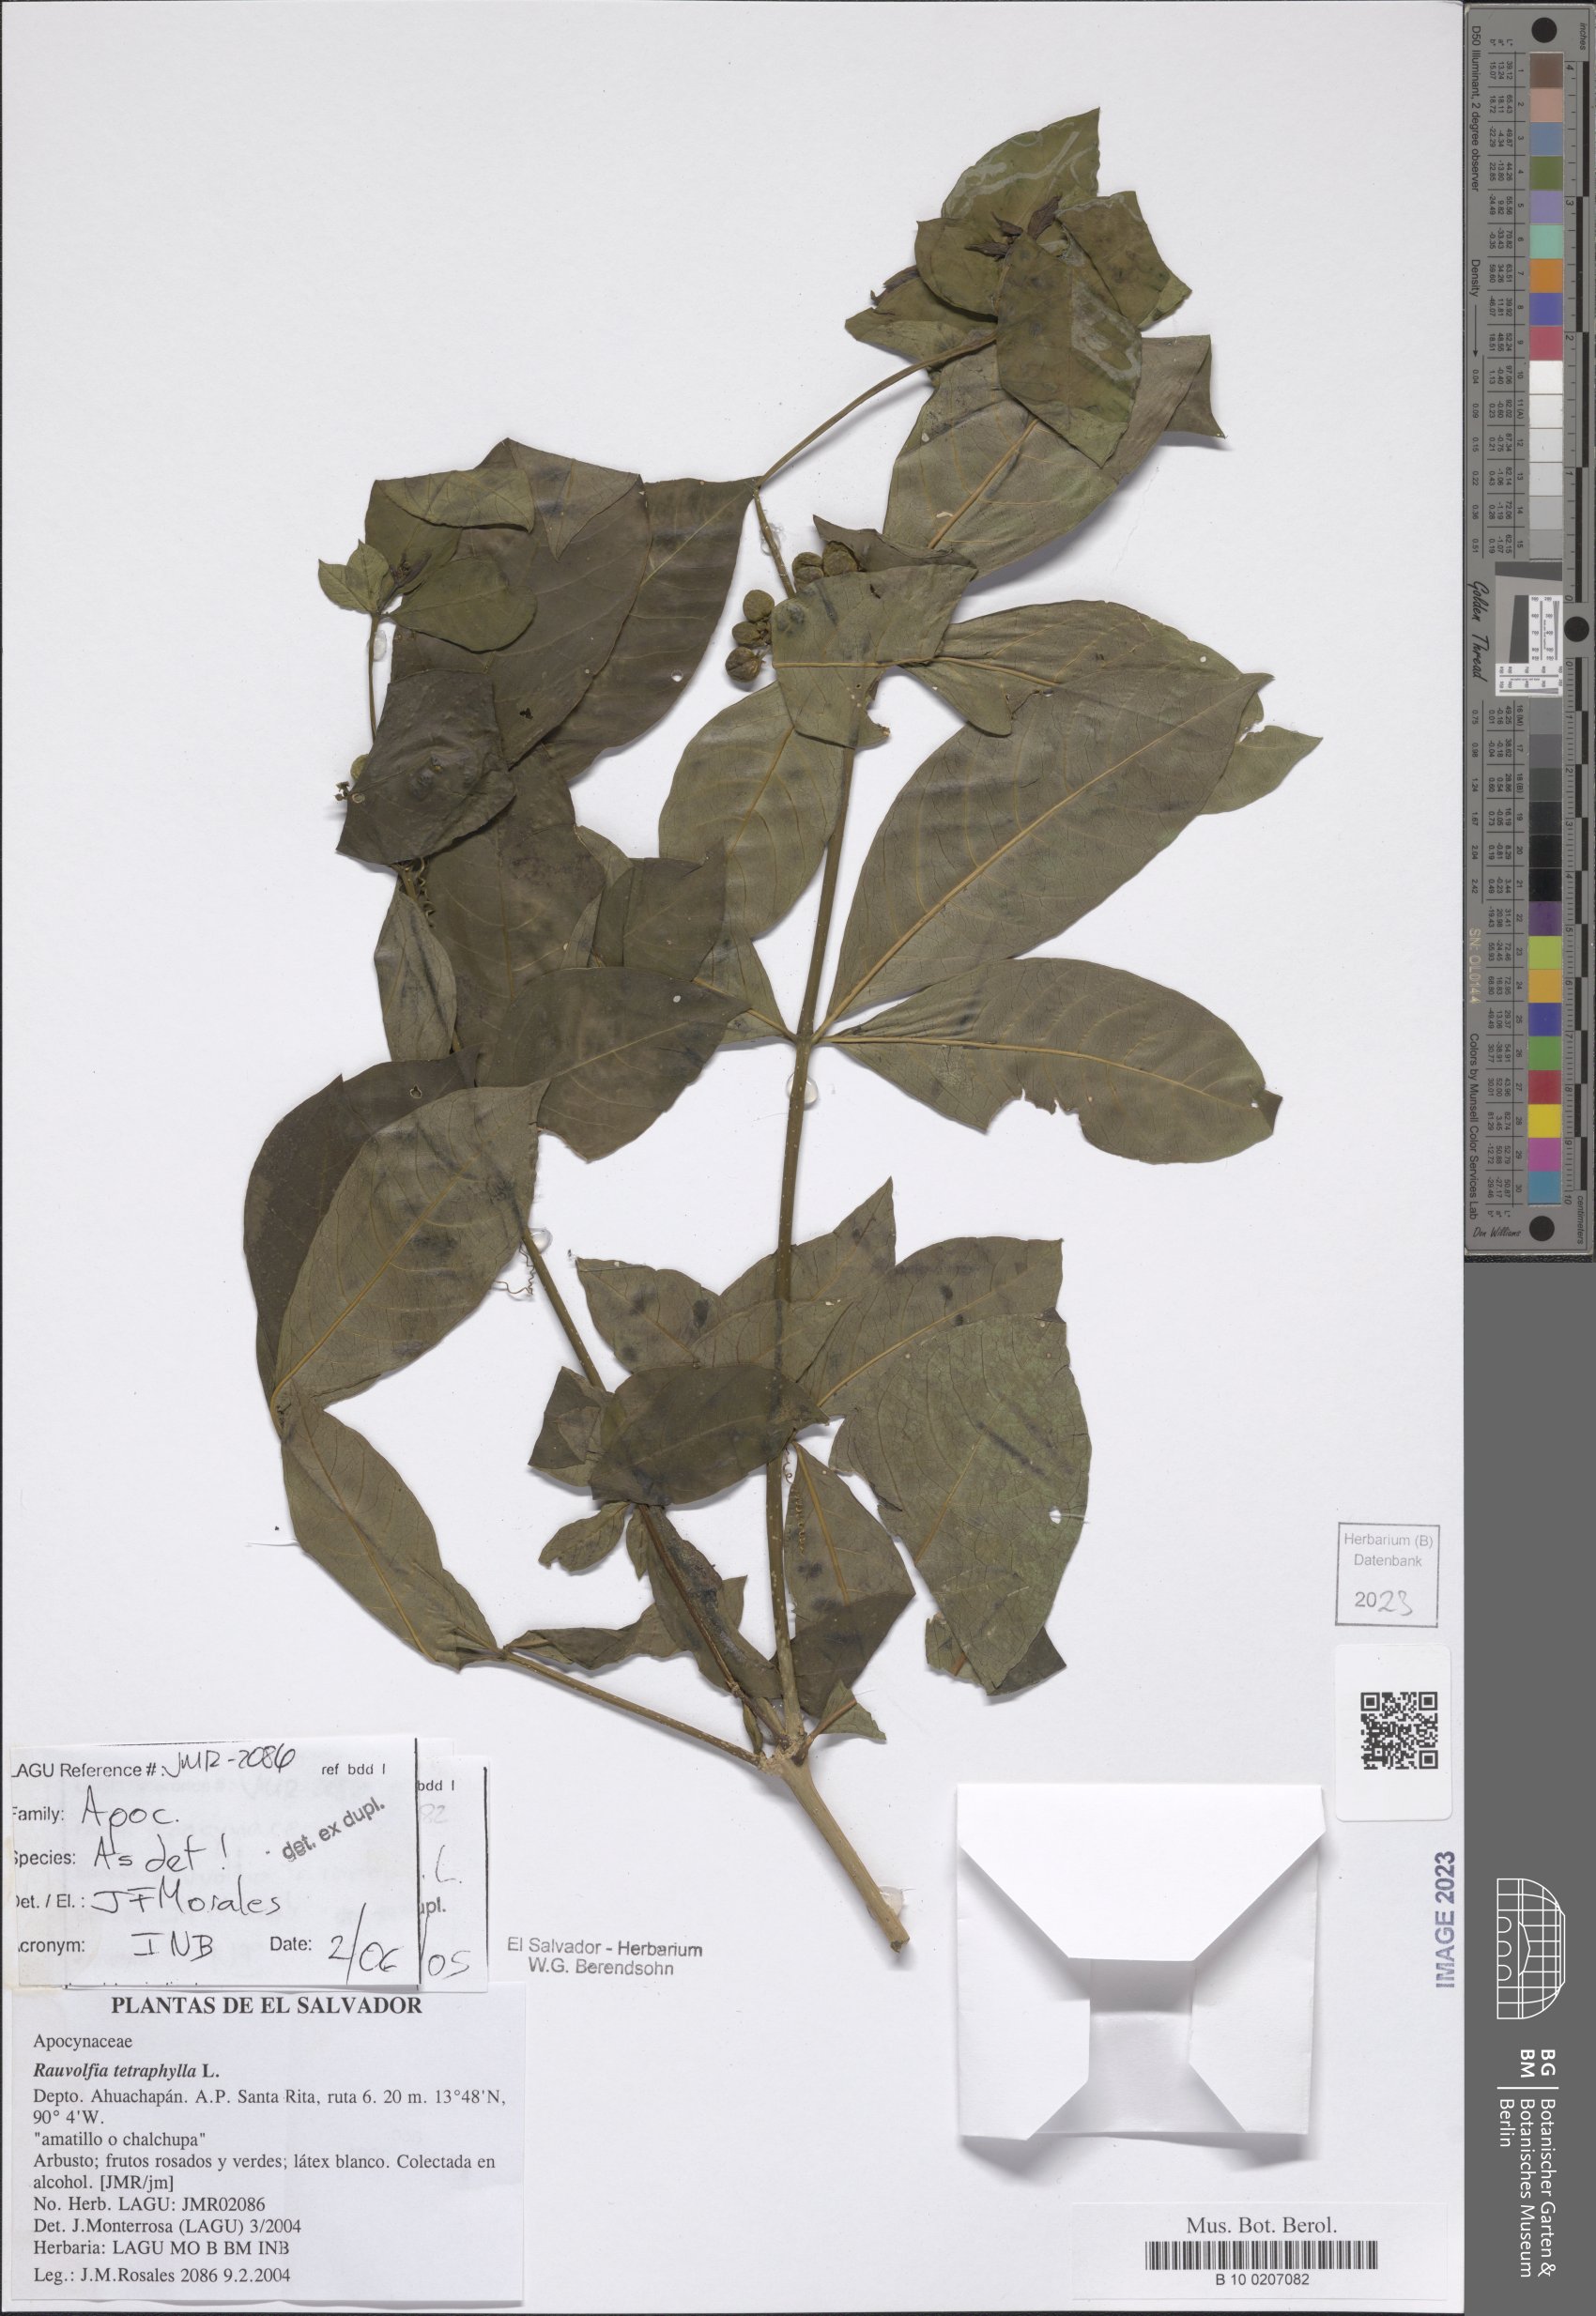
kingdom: Plantae
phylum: Tracheophyta
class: Magnoliopsida
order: Gentianales
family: Apocynaceae
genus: Rauvolfia
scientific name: Rauvolfia tetraphylla
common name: Four-leaf devil-pepper
